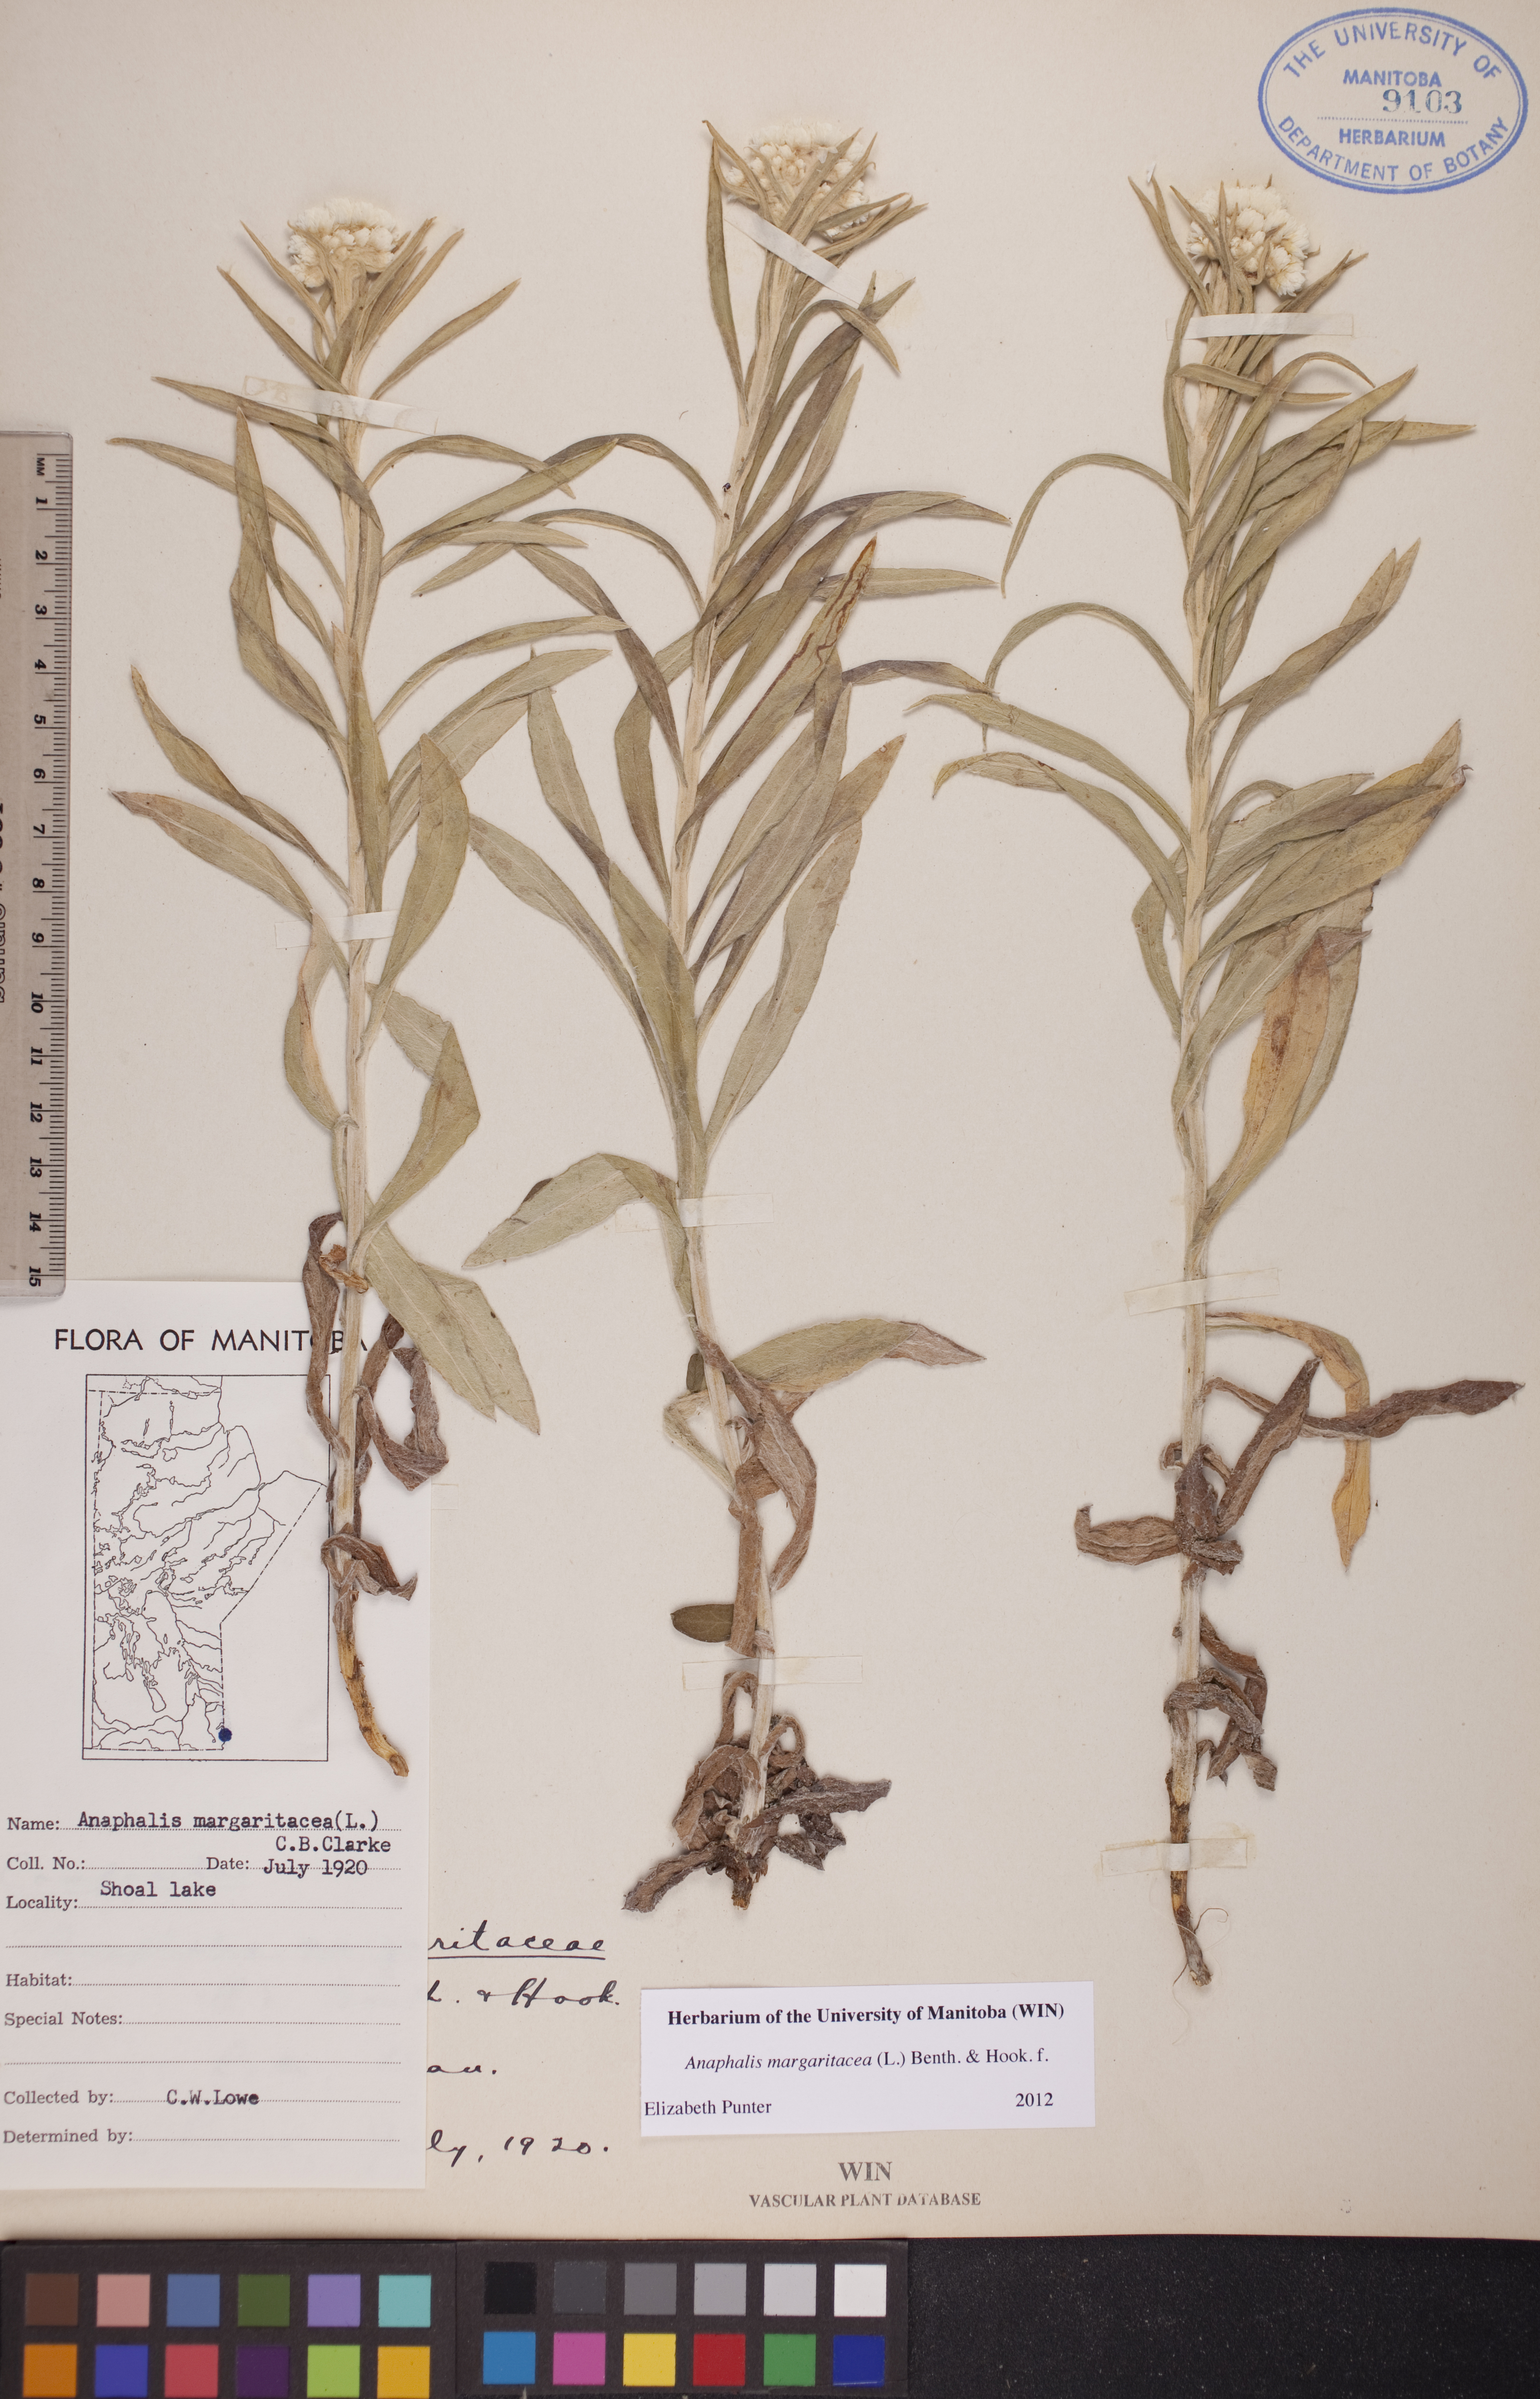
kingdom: Plantae
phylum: Tracheophyta
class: Magnoliopsida
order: Asterales
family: Asteraceae
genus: Anaphalis
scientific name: Anaphalis margaritacea
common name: Pearly everlasting
